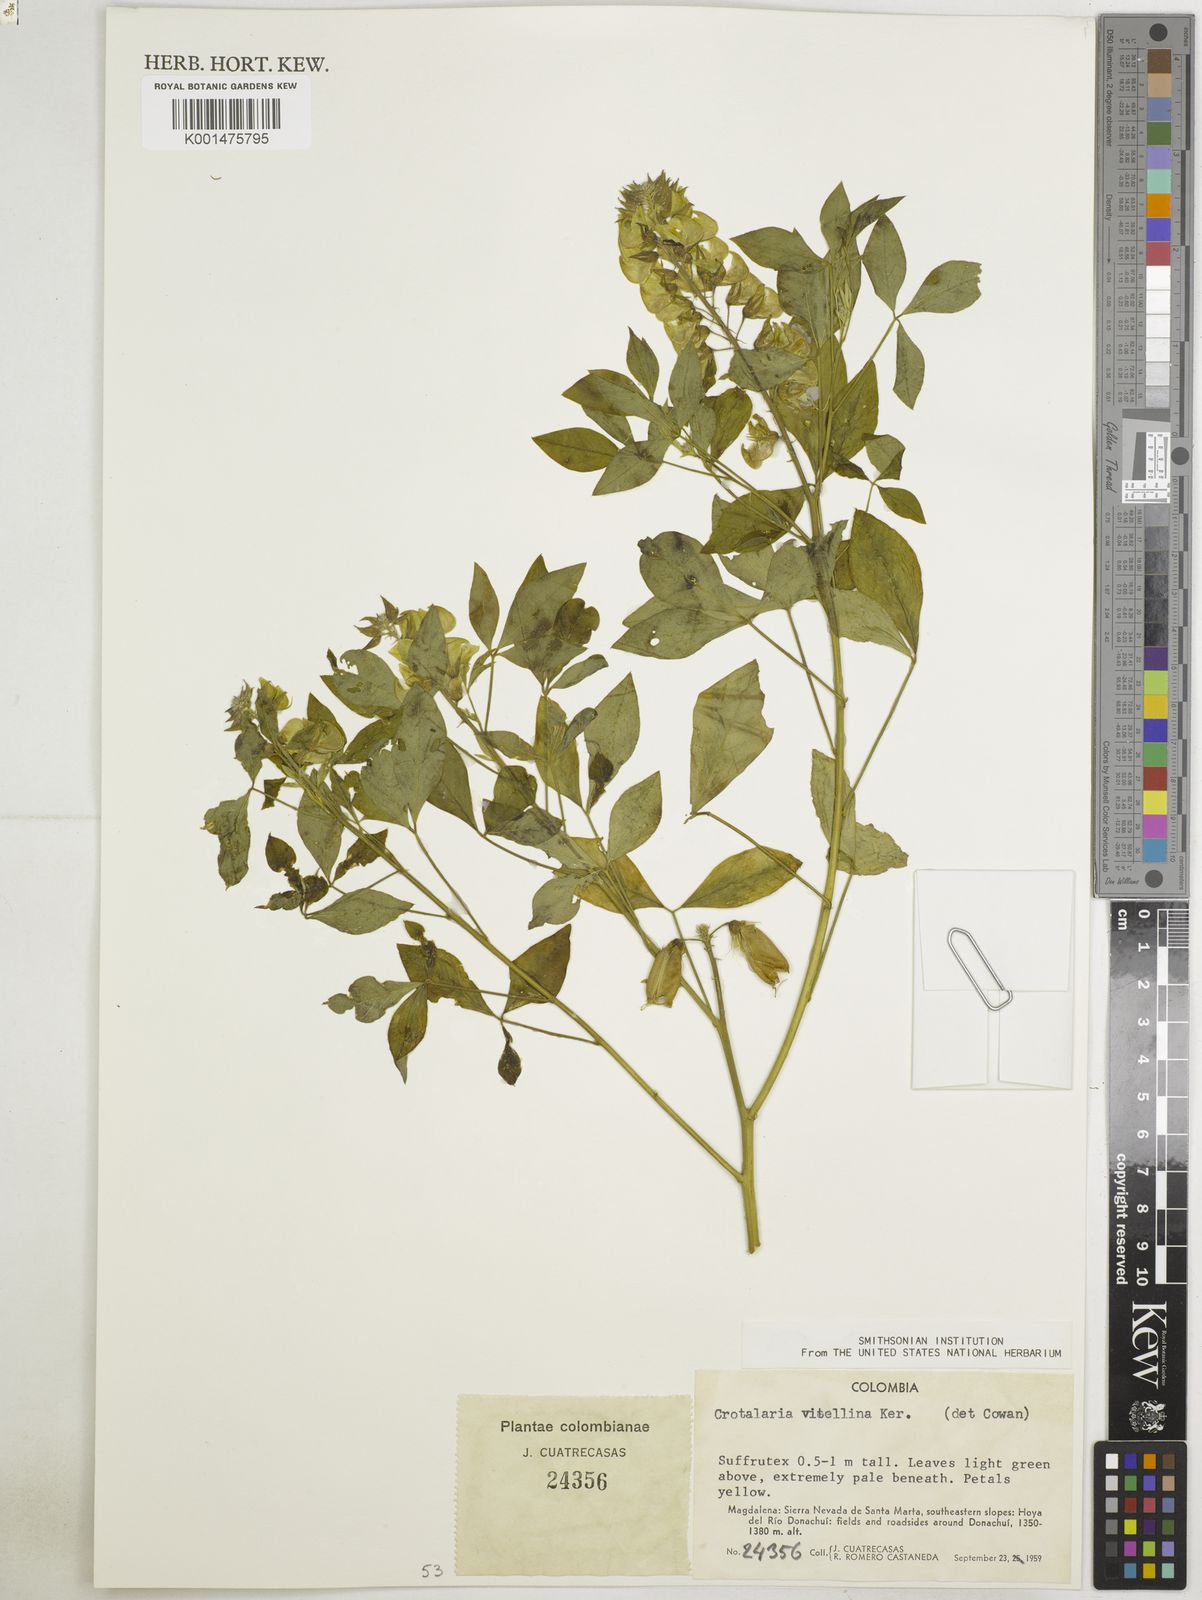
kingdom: Plantae
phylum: Tracheophyta
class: Magnoliopsida
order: Fabales
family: Fabaceae
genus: Crotalaria
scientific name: Crotalaria vitellina
